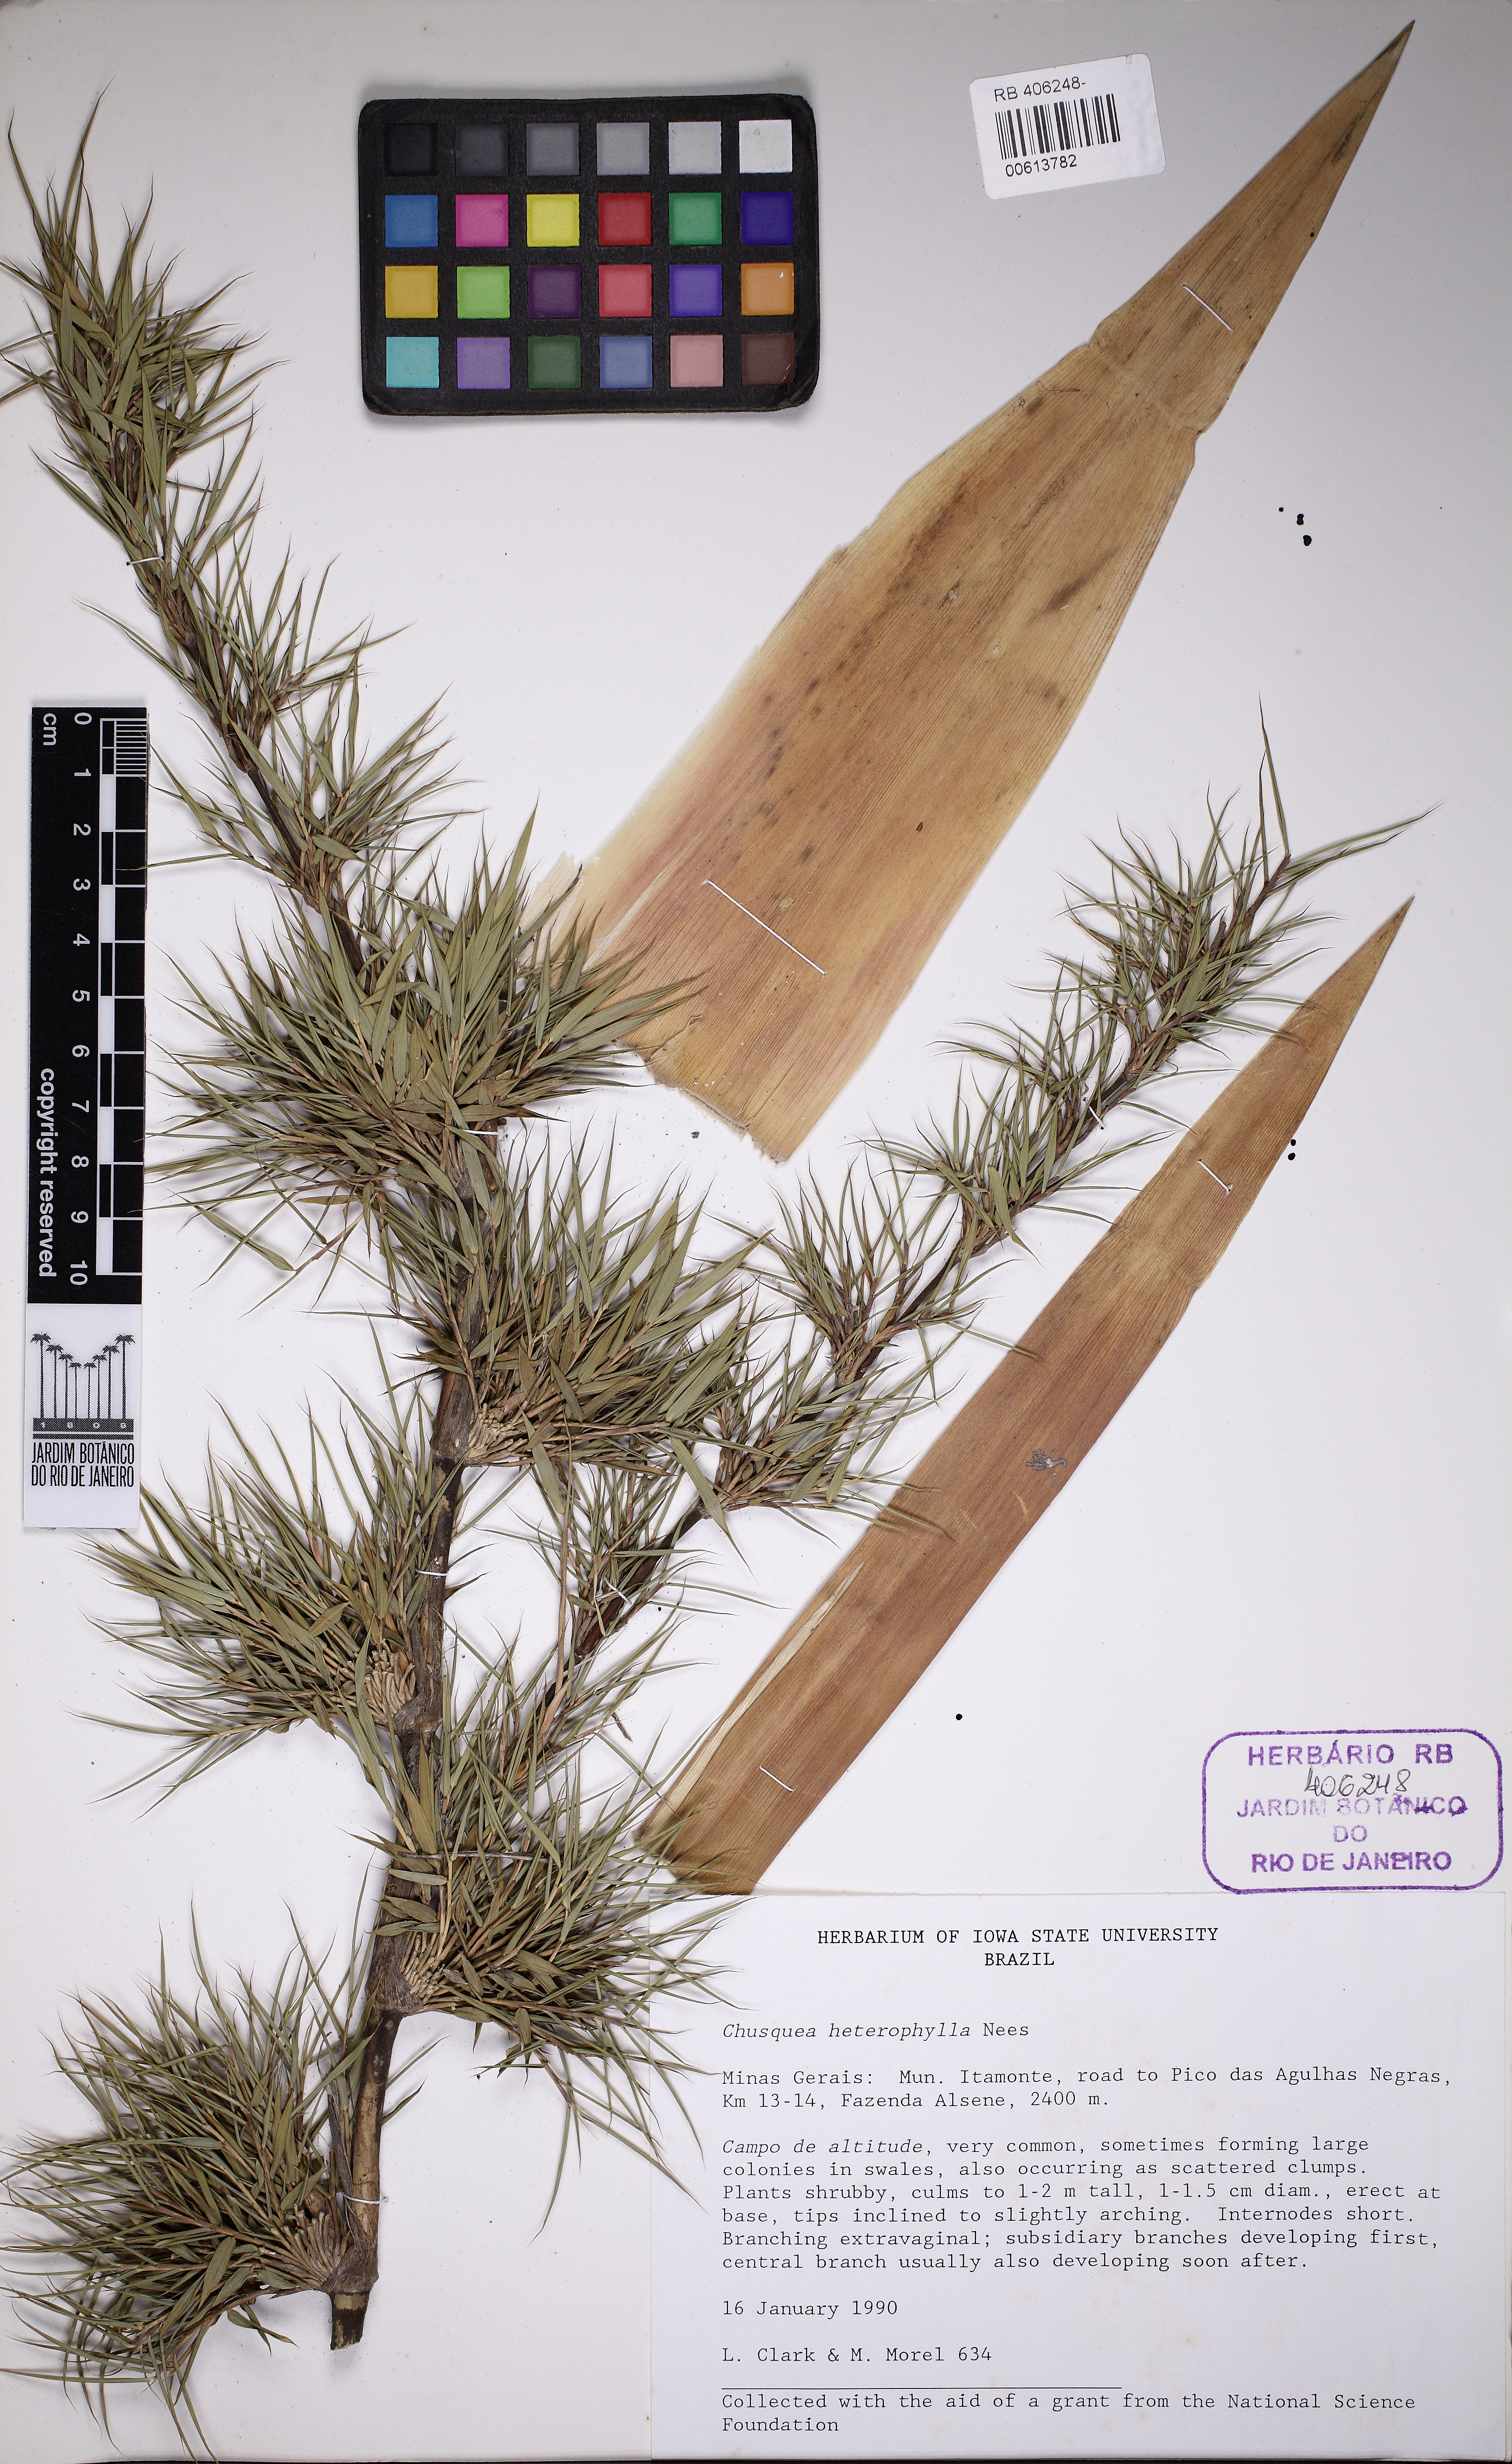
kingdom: Plantae
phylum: Tracheophyta
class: Liliopsida
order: Poales
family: Poaceae
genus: Chusquea
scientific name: Chusquea heterophylla
